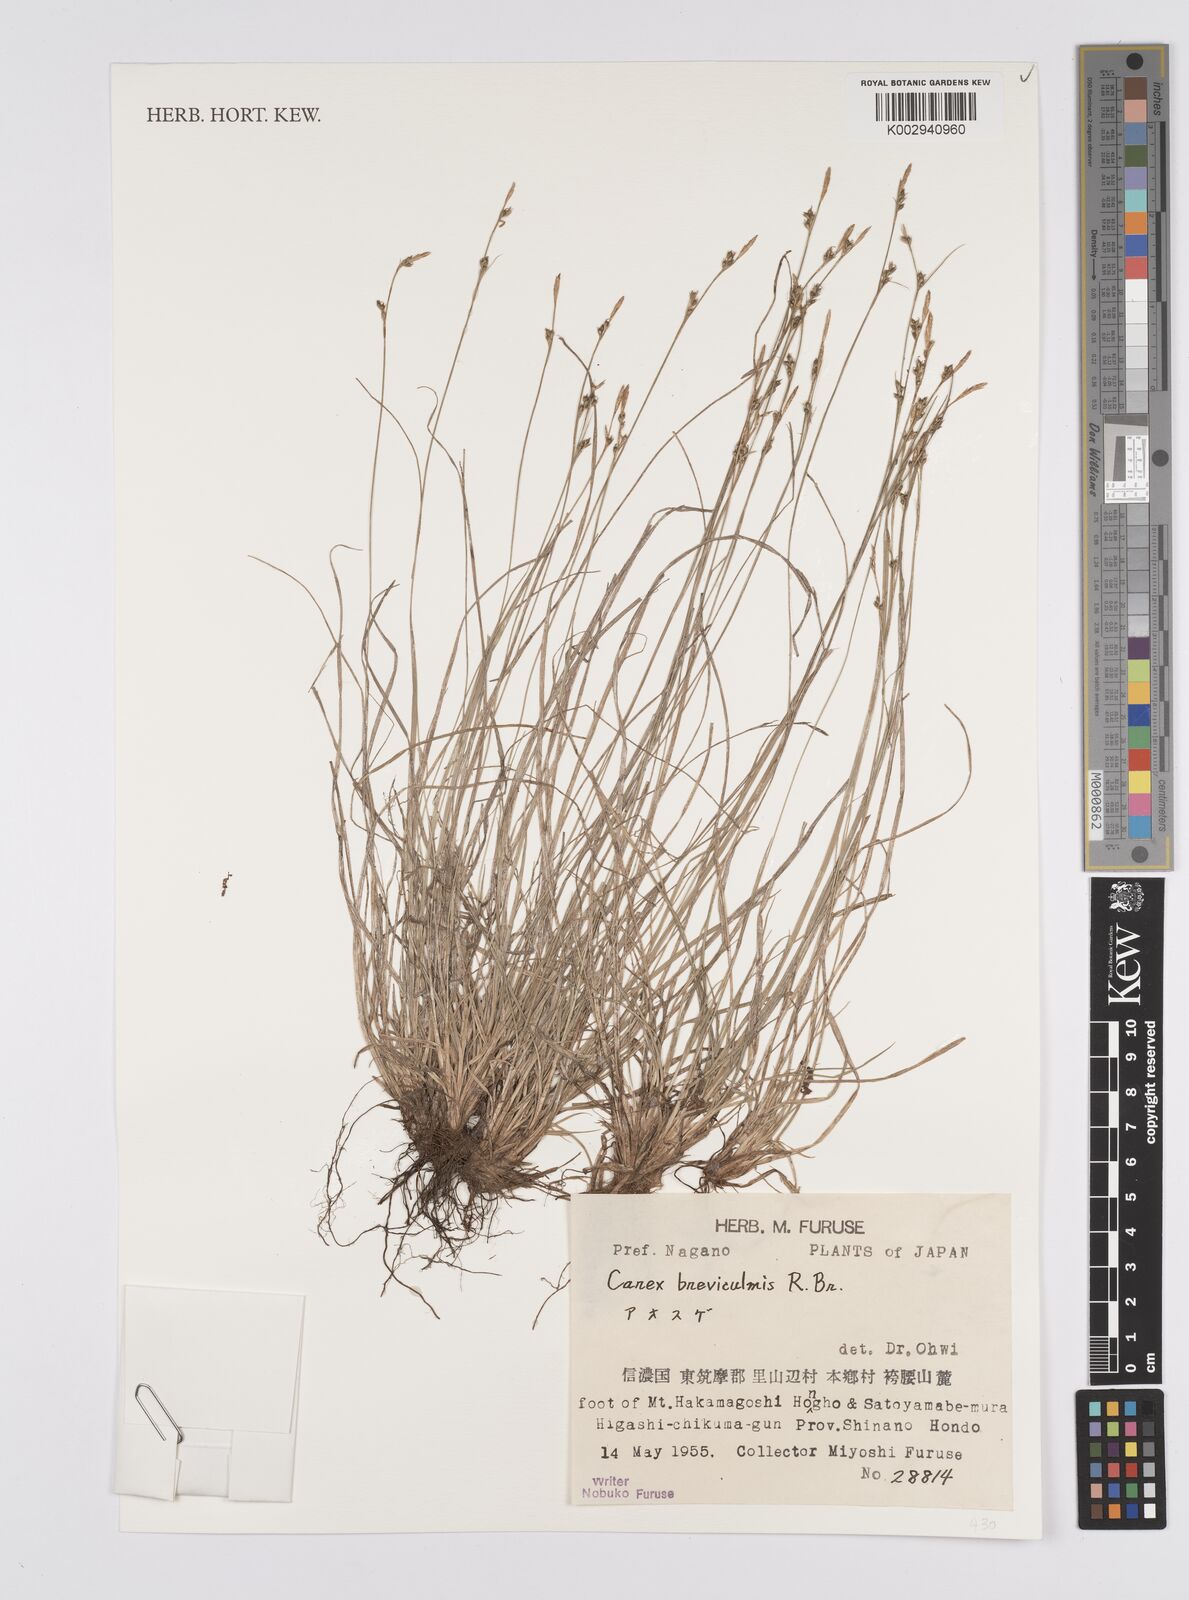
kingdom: Plantae
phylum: Tracheophyta
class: Liliopsida
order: Poales
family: Cyperaceae
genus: Carex
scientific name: Carex fibrillosa
